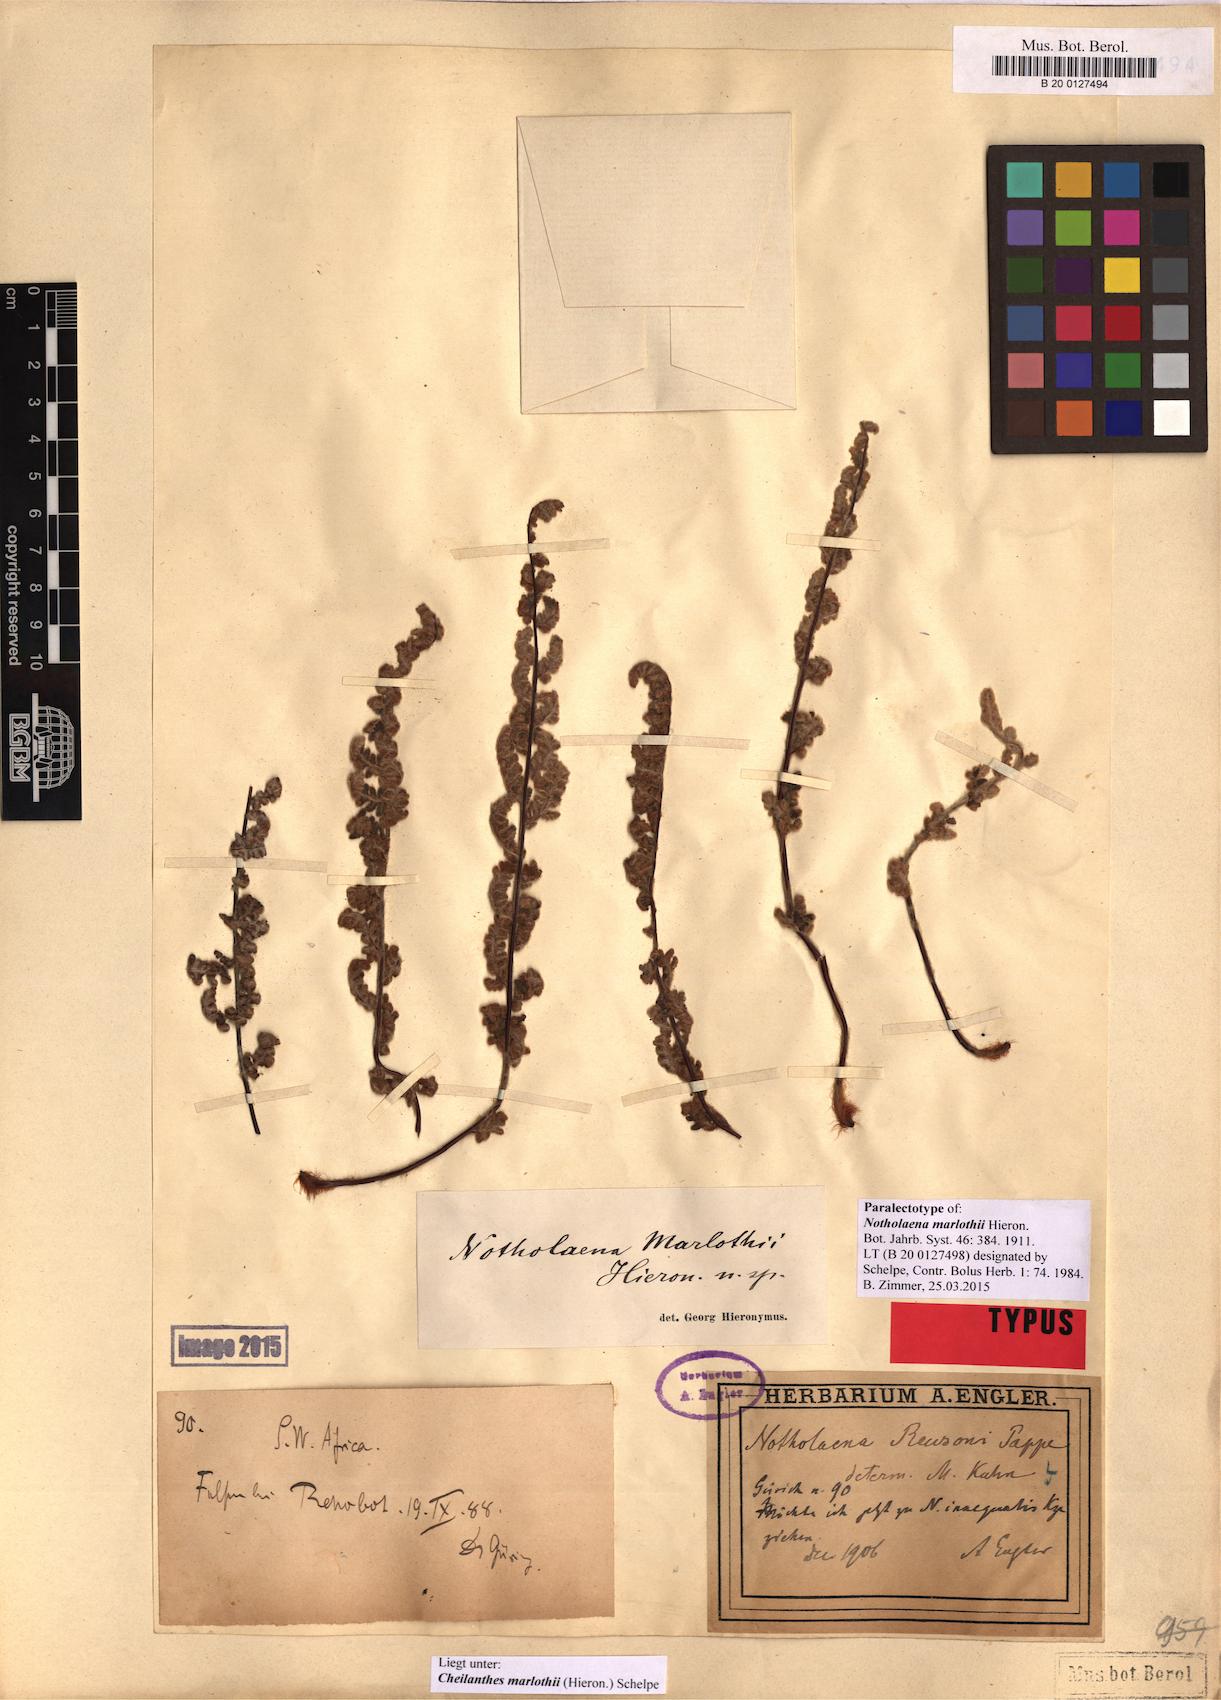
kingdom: Plantae
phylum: Tracheophyta
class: Polypodiopsida
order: Polypodiales
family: Pteridaceae
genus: Cheilanthes
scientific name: Cheilanthes marlothii
